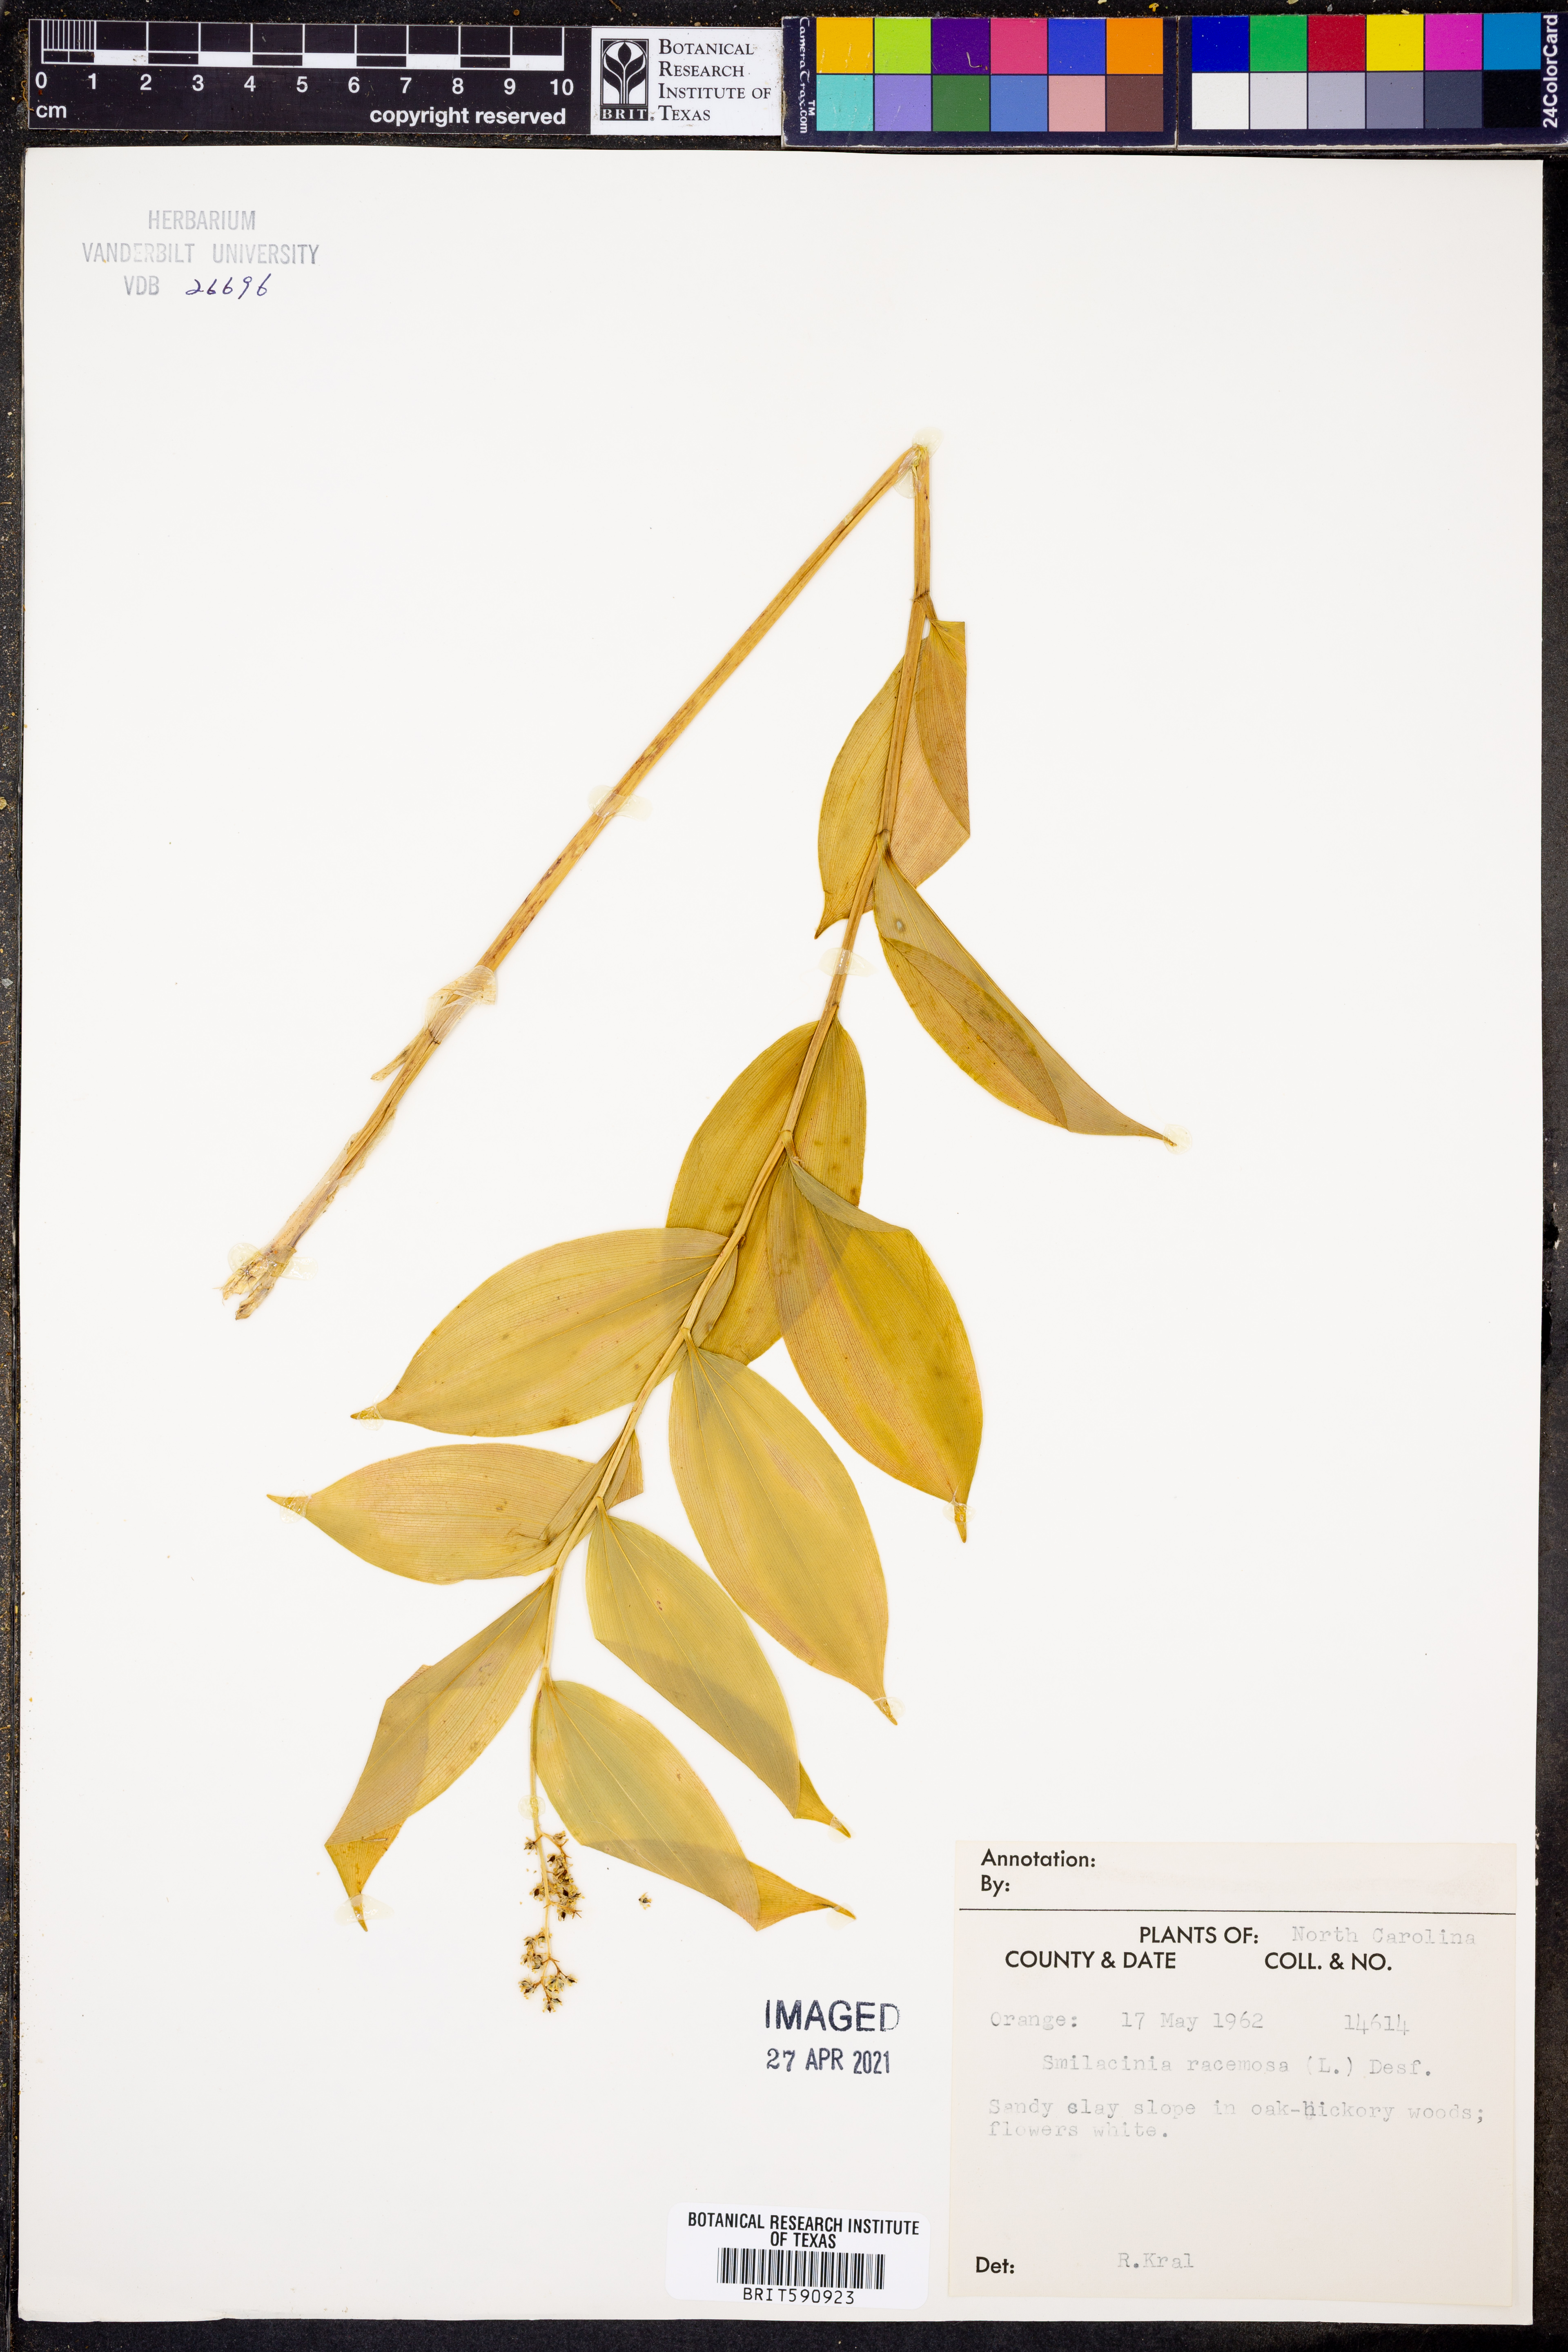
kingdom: Plantae
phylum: Tracheophyta
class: Liliopsida
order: Asparagales
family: Asparagaceae
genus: Maianthemum
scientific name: Maianthemum racemosum
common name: False spikenard
